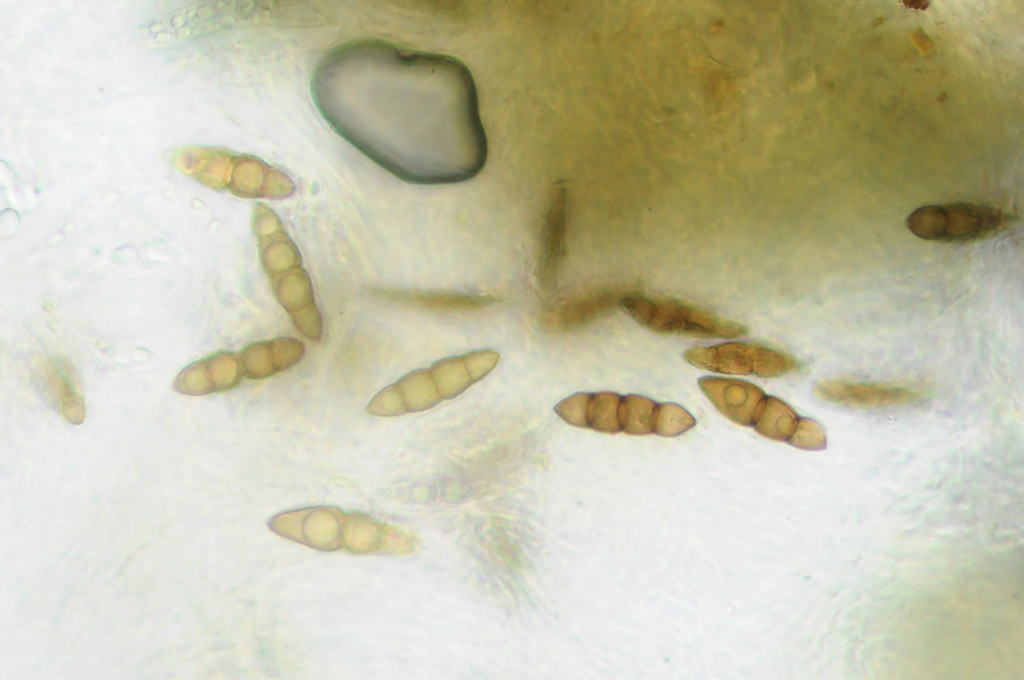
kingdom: Fungi
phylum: Ascomycota
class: Dothideomycetes
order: Pleosporales
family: Lophiostomataceae
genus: Lophiostoma
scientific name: Lophiostoma viridarium
